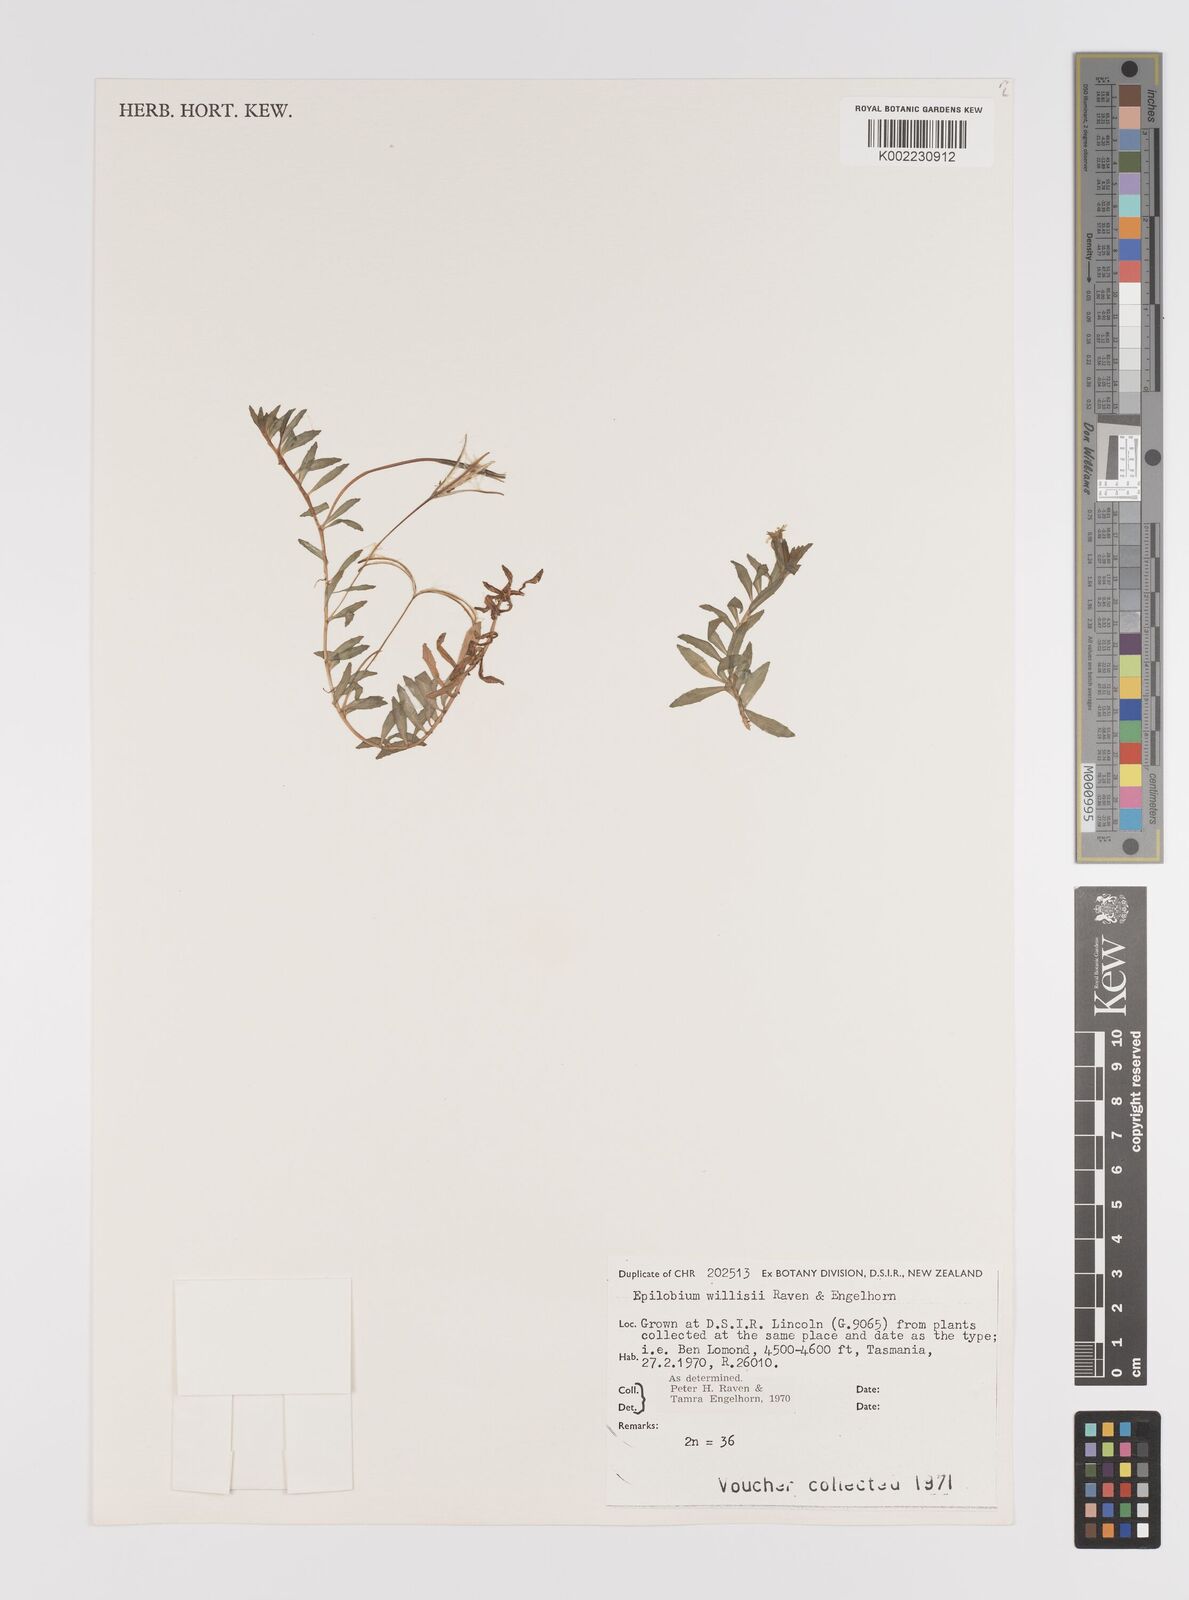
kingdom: Plantae
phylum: Tracheophyta
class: Magnoliopsida
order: Myrtales
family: Onagraceae
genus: Epilobium
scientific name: Epilobium willisii
